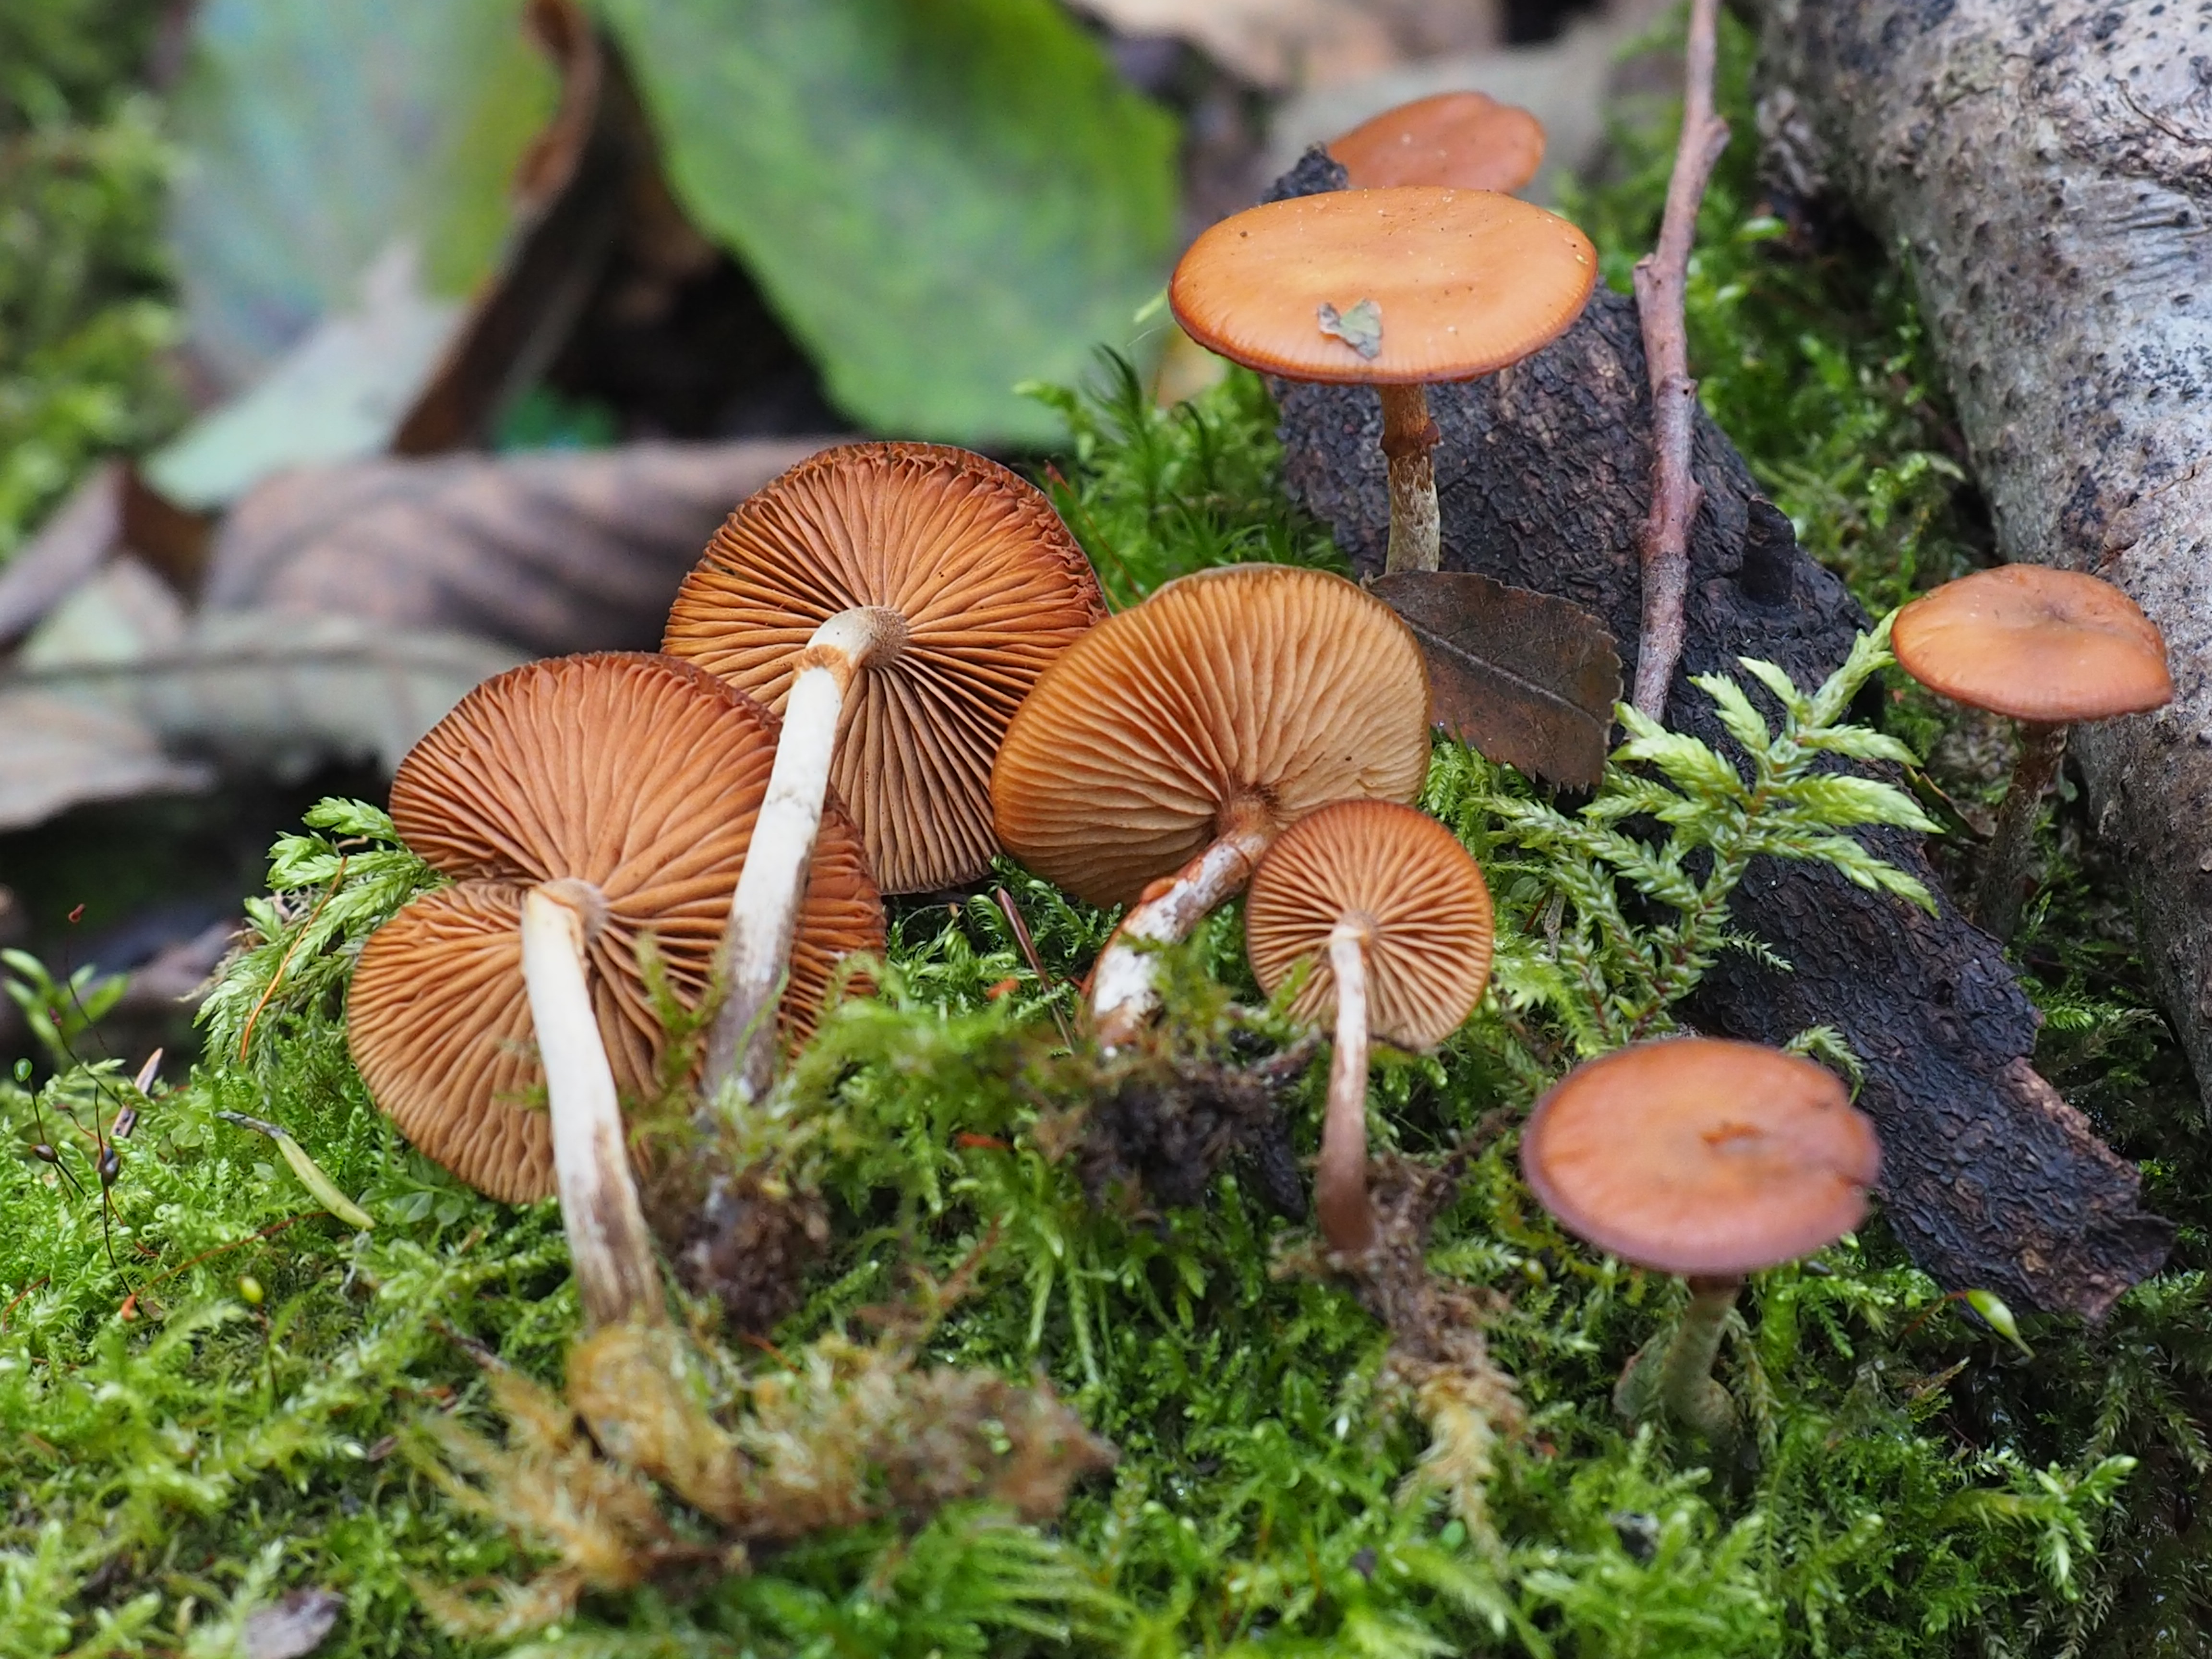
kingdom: Fungi
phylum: Basidiomycota
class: Agaricomycetes
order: Agaricales
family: Hymenogastraceae
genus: Galerina
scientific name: Galerina marginata
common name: Funeral bell
